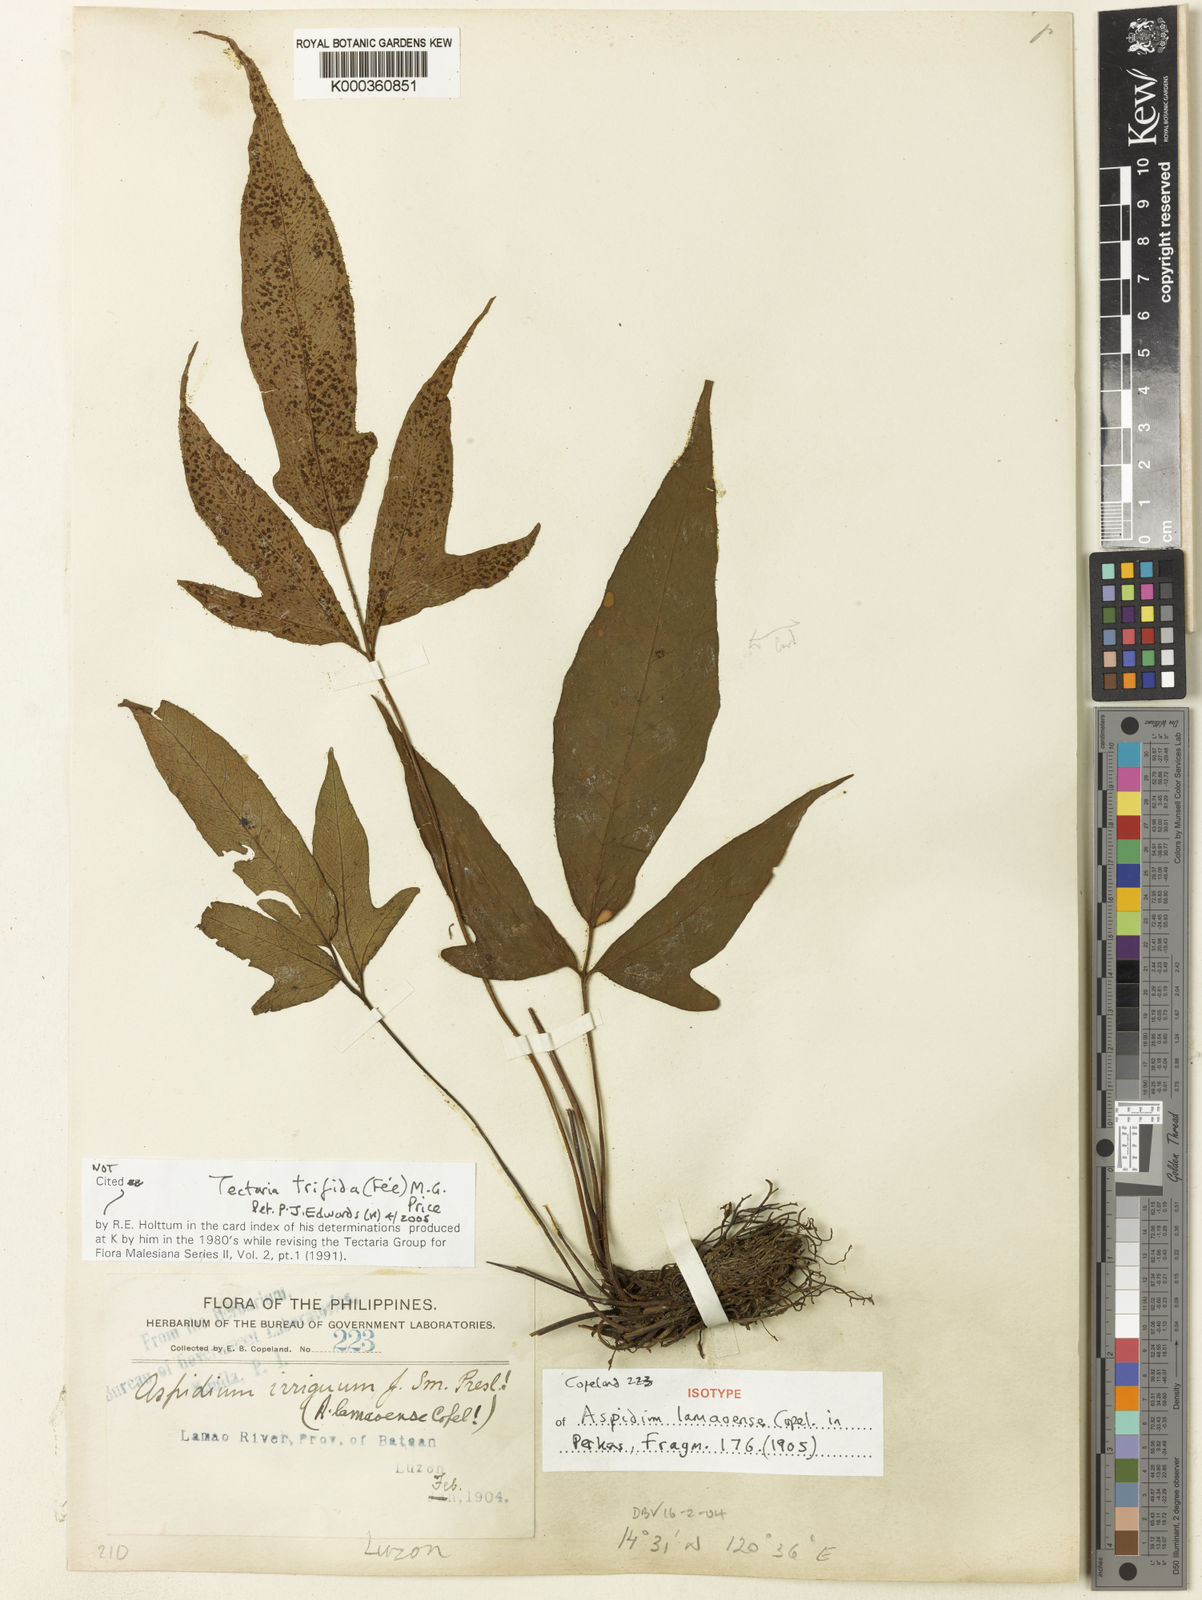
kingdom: Plantae
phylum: Tracheophyta
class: Polypodiopsida
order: Polypodiales
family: Tectariaceae
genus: Tectaria
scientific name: Tectaria
